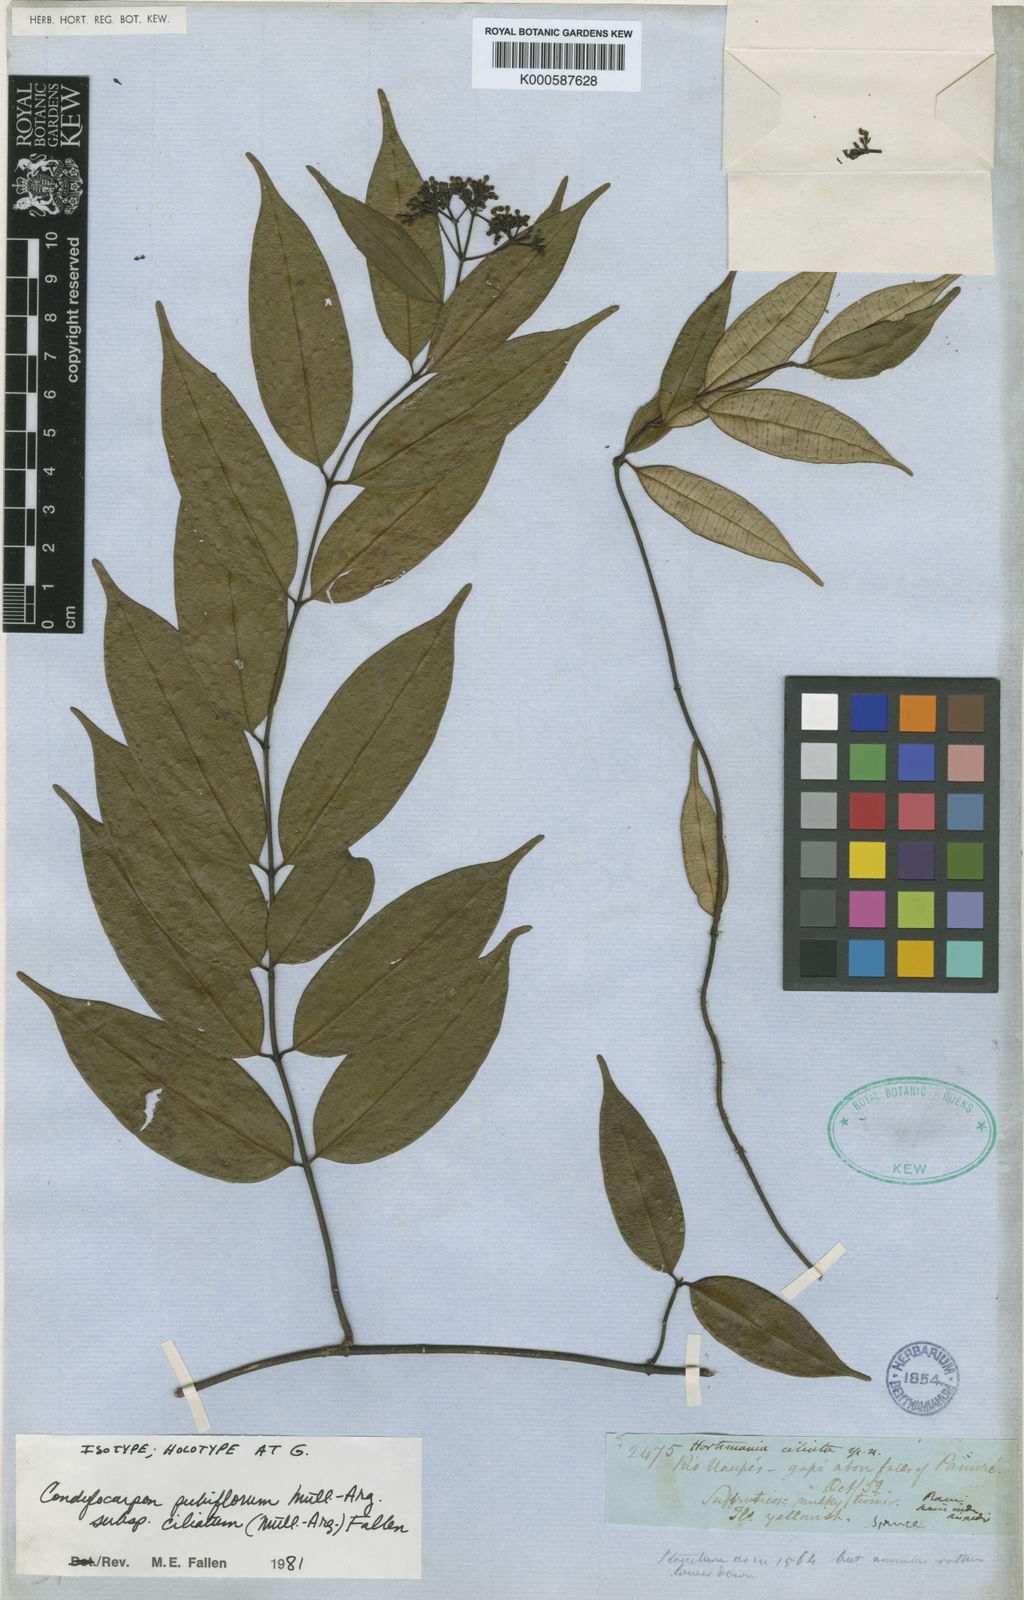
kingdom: Plantae
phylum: Tracheophyta
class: Magnoliopsida
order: Gentianales
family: Apocynaceae
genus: Condylocarpon
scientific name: Condylocarpon
